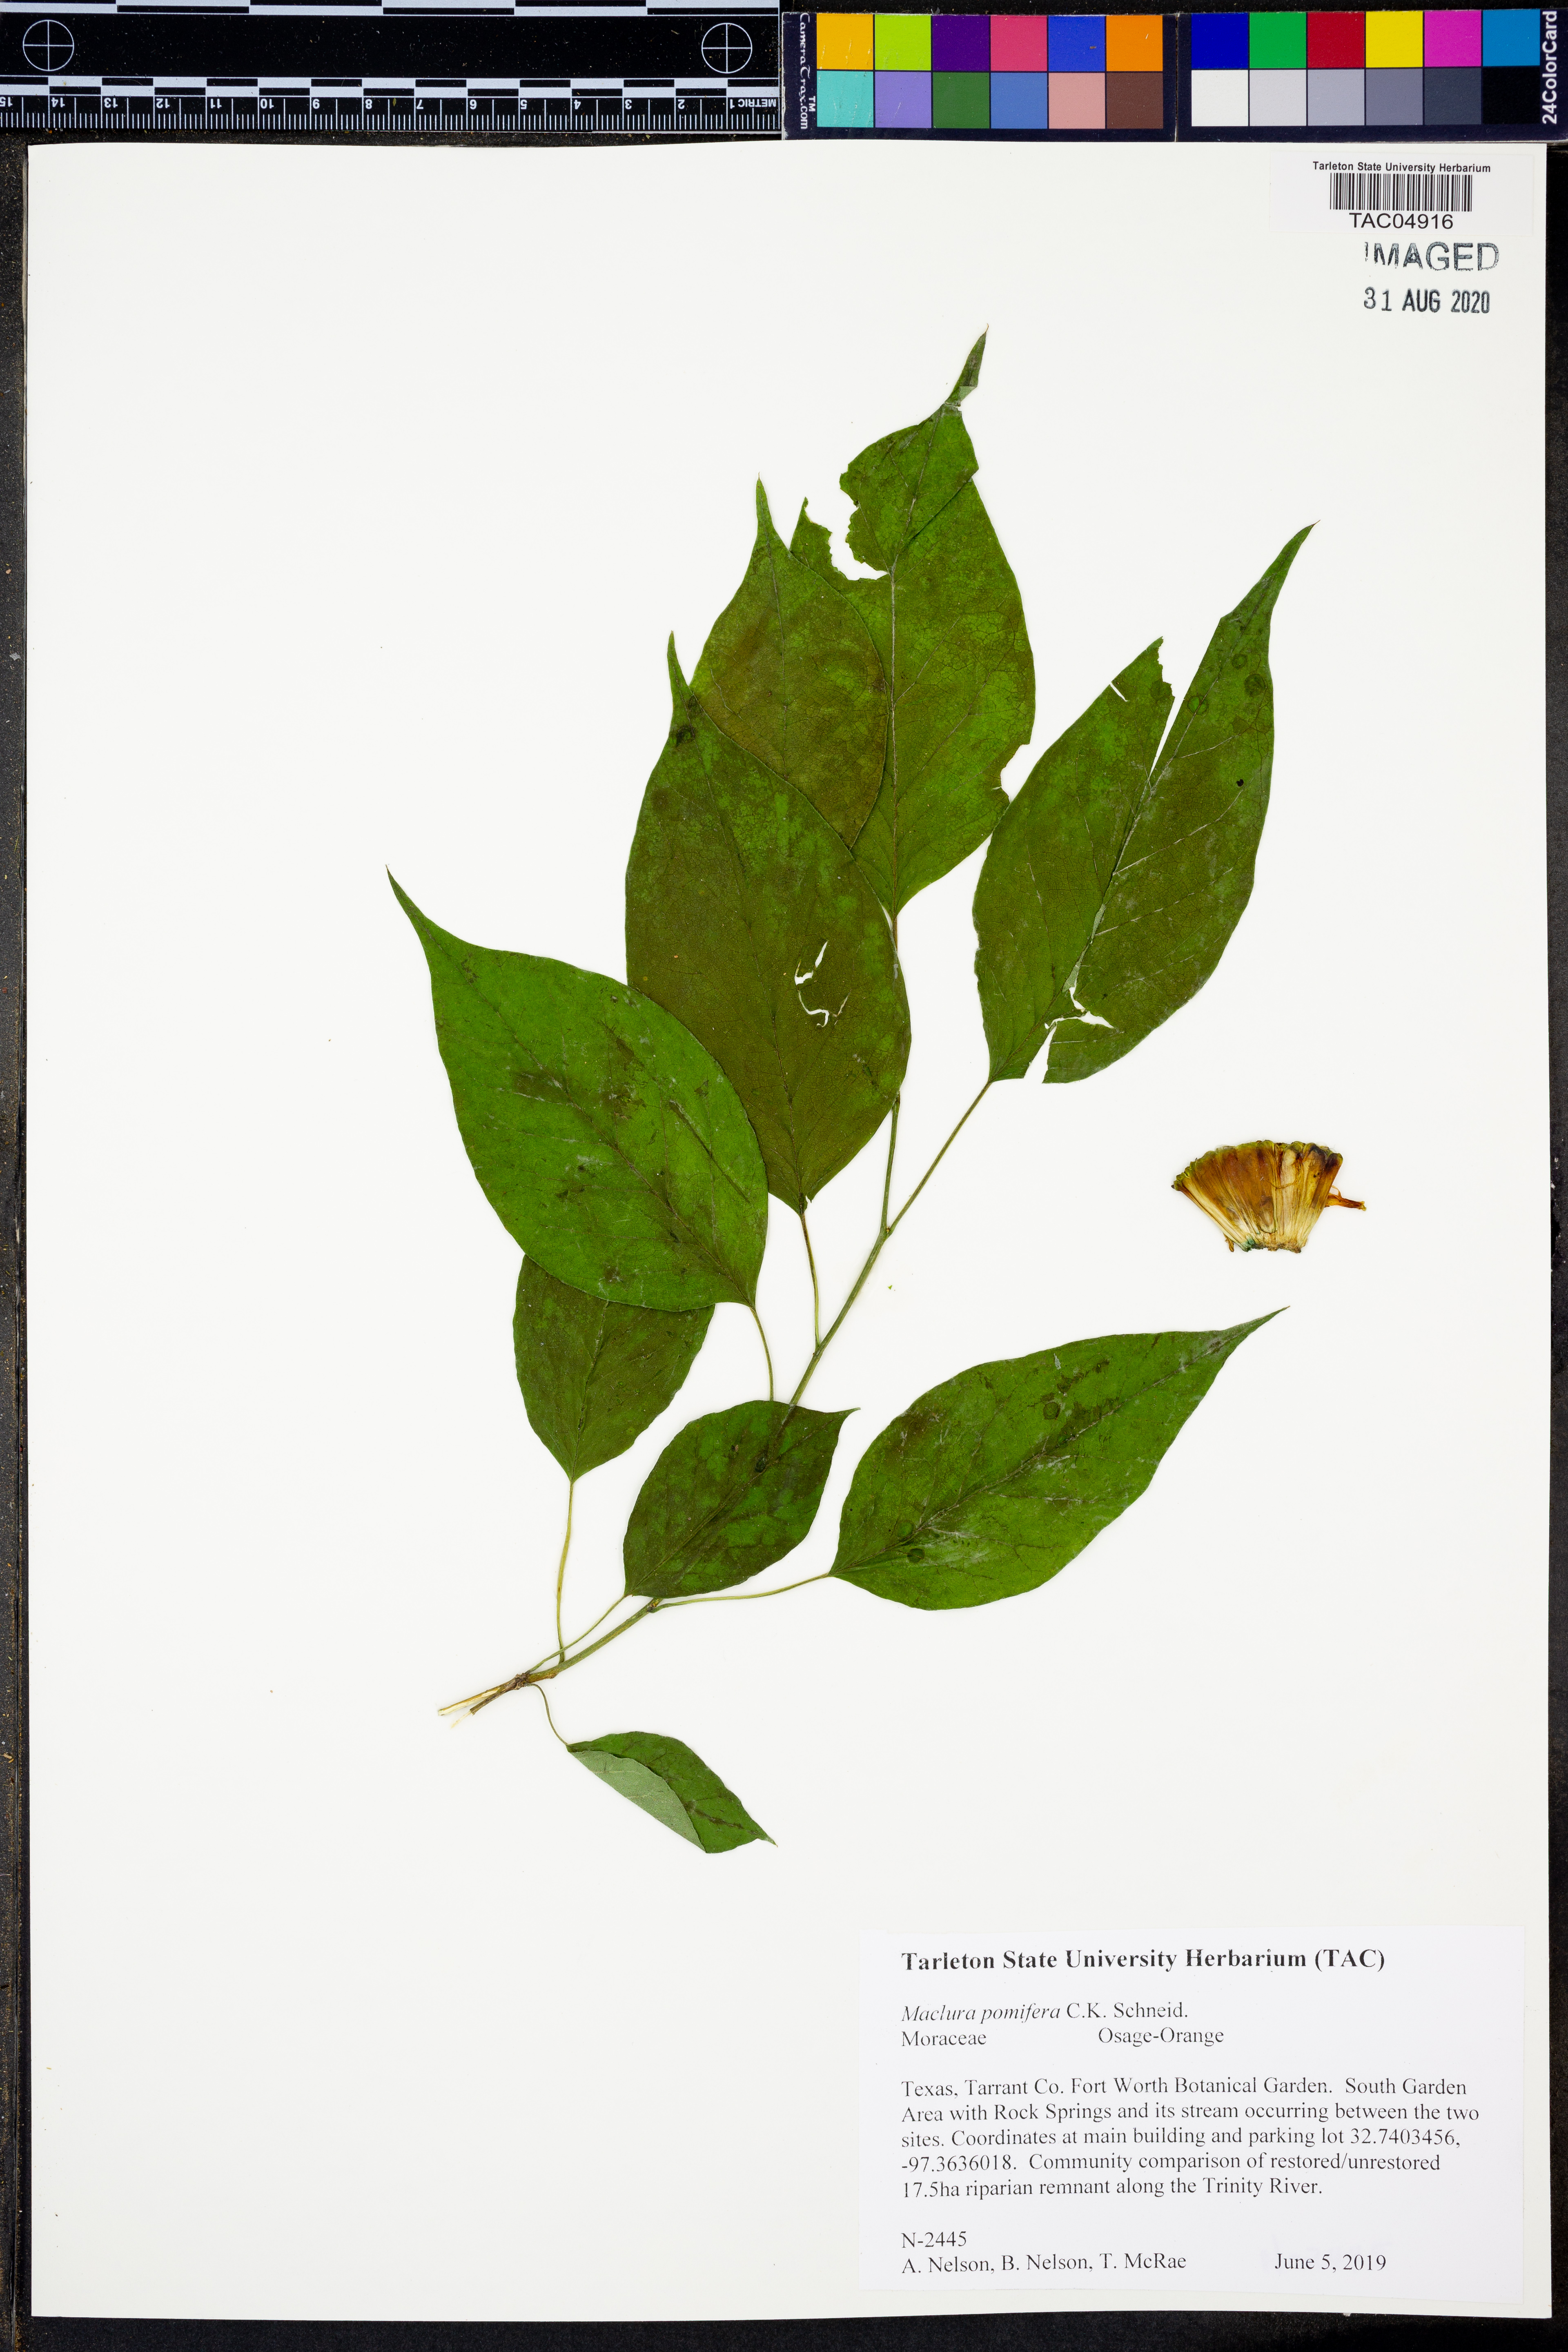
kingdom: Plantae
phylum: Tracheophyta
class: Magnoliopsida
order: Rosales
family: Moraceae
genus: Maclura
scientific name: Maclura pomifera
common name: Osage-orange
